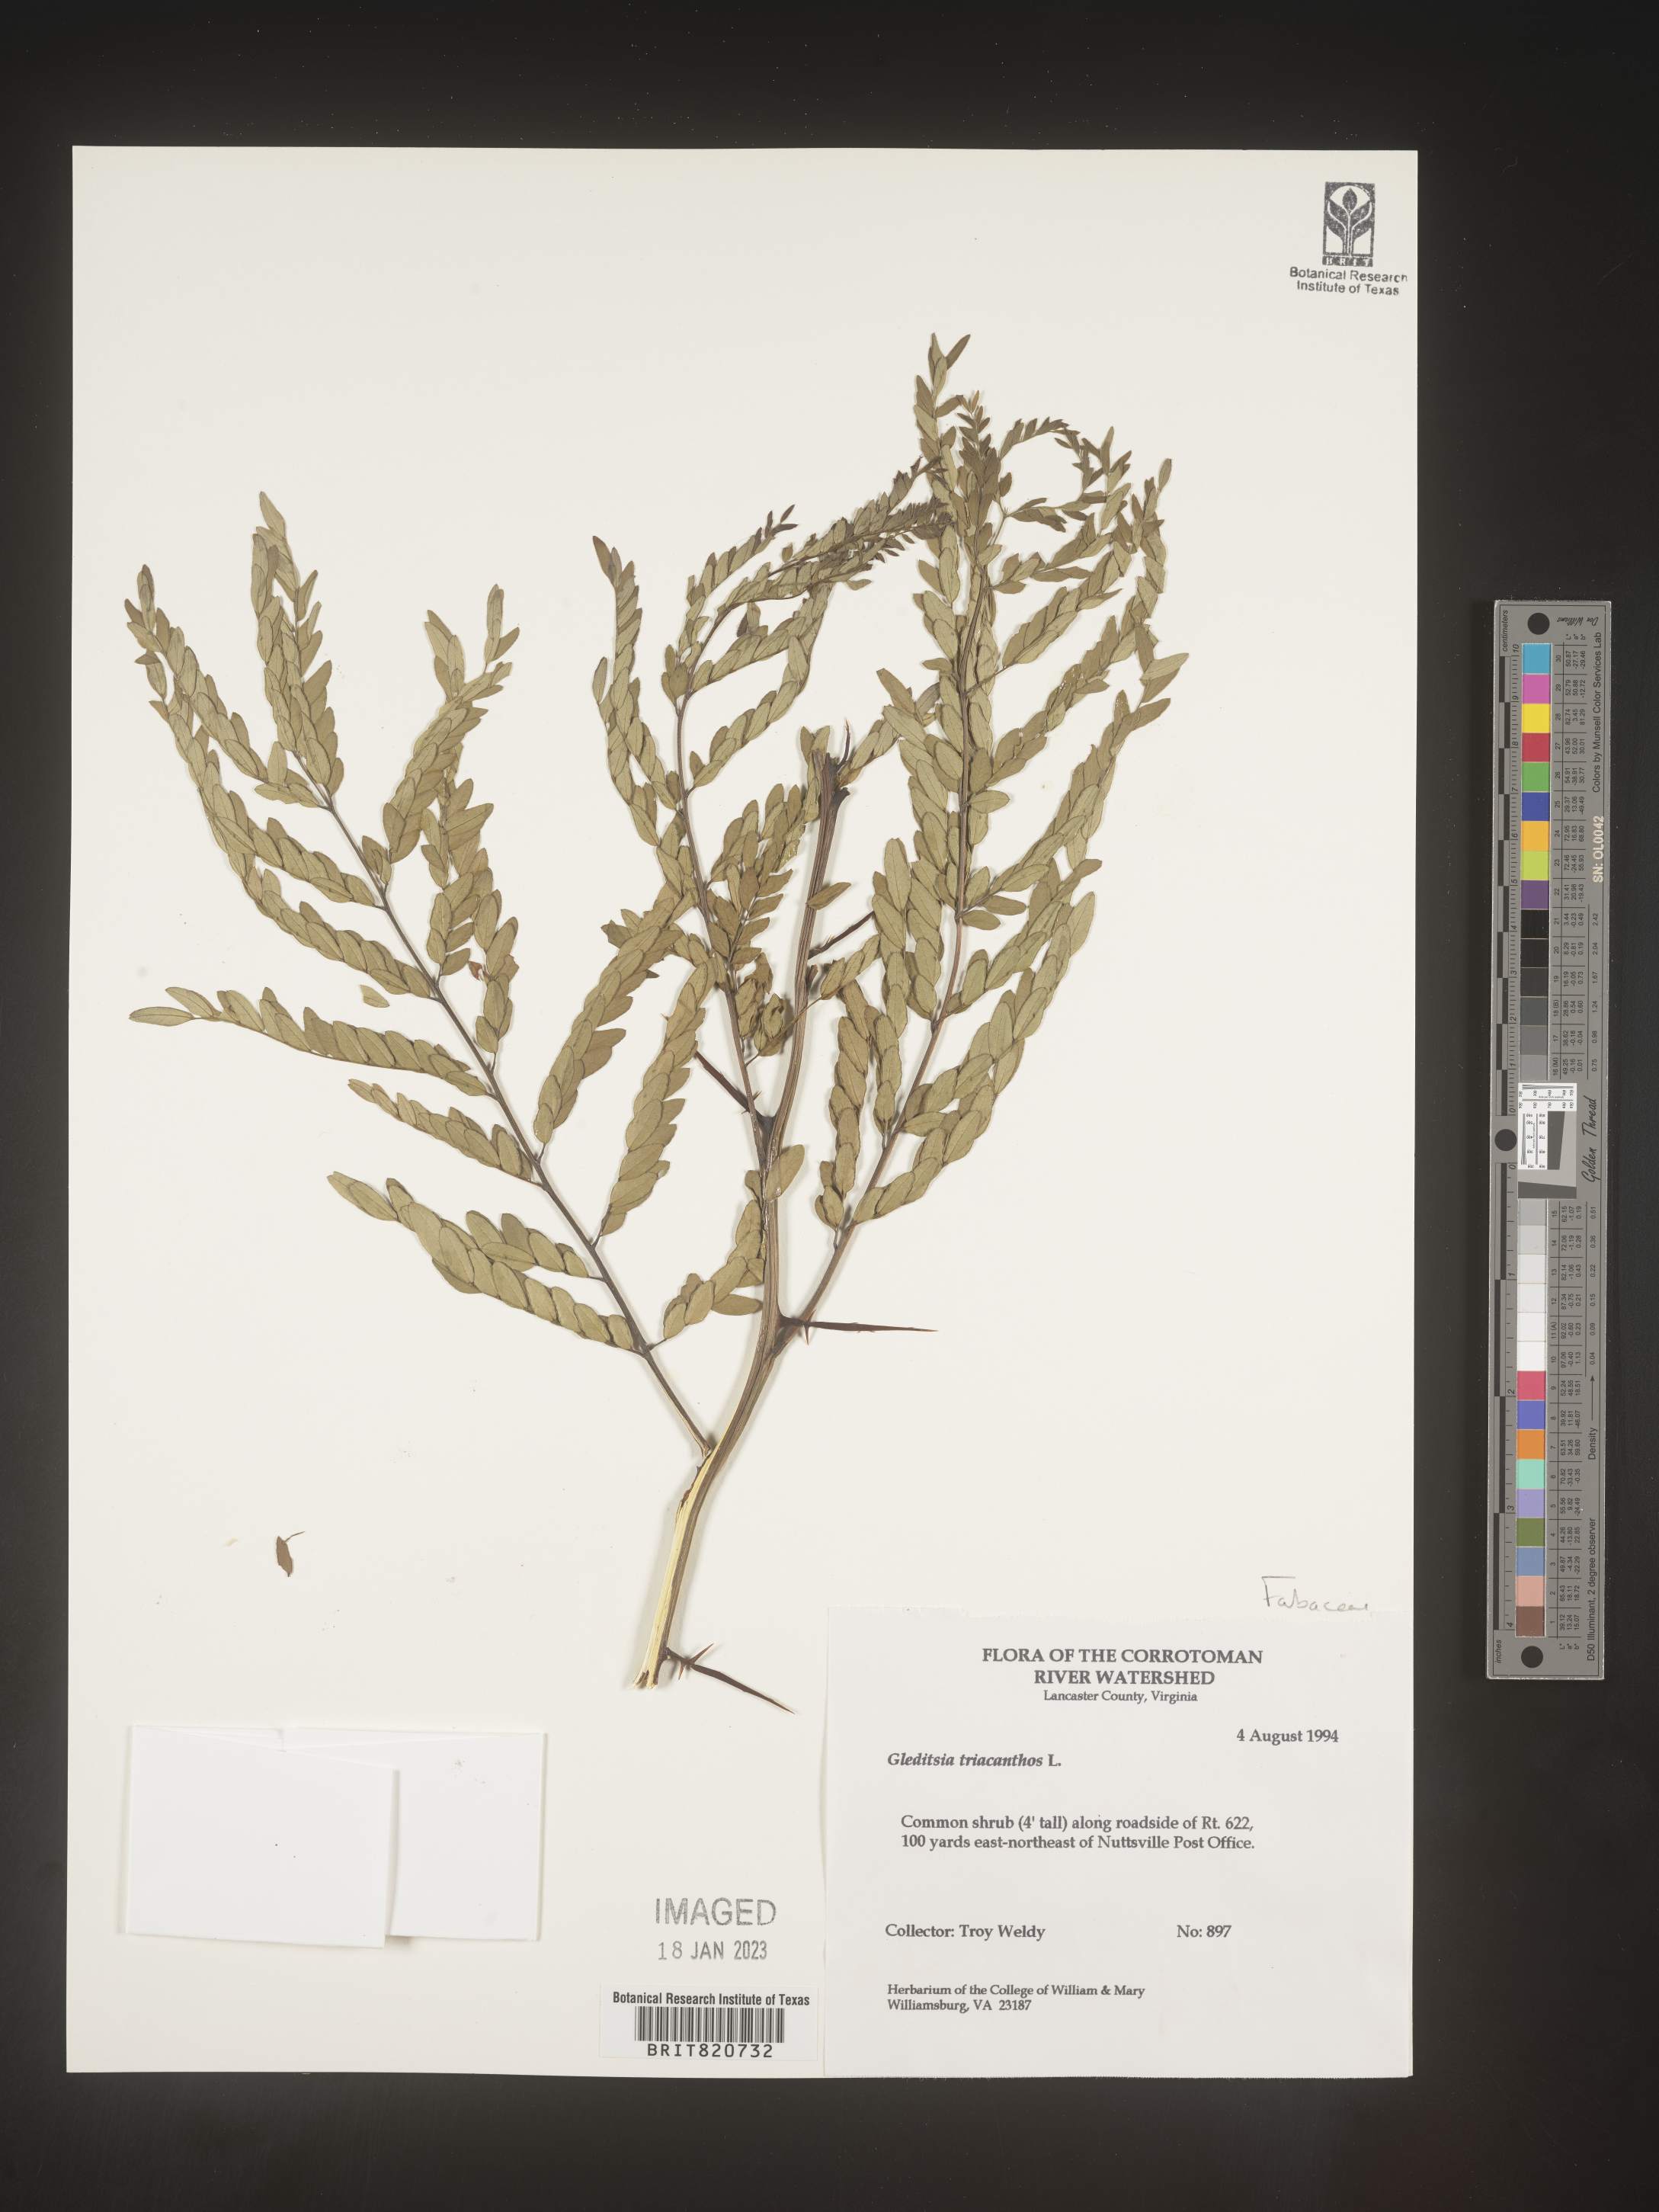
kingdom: Plantae
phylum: Tracheophyta
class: Magnoliopsida
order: Fabales
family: Fabaceae
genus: Gleditsia
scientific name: Gleditsia triacanthos
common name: Common honeylocust
